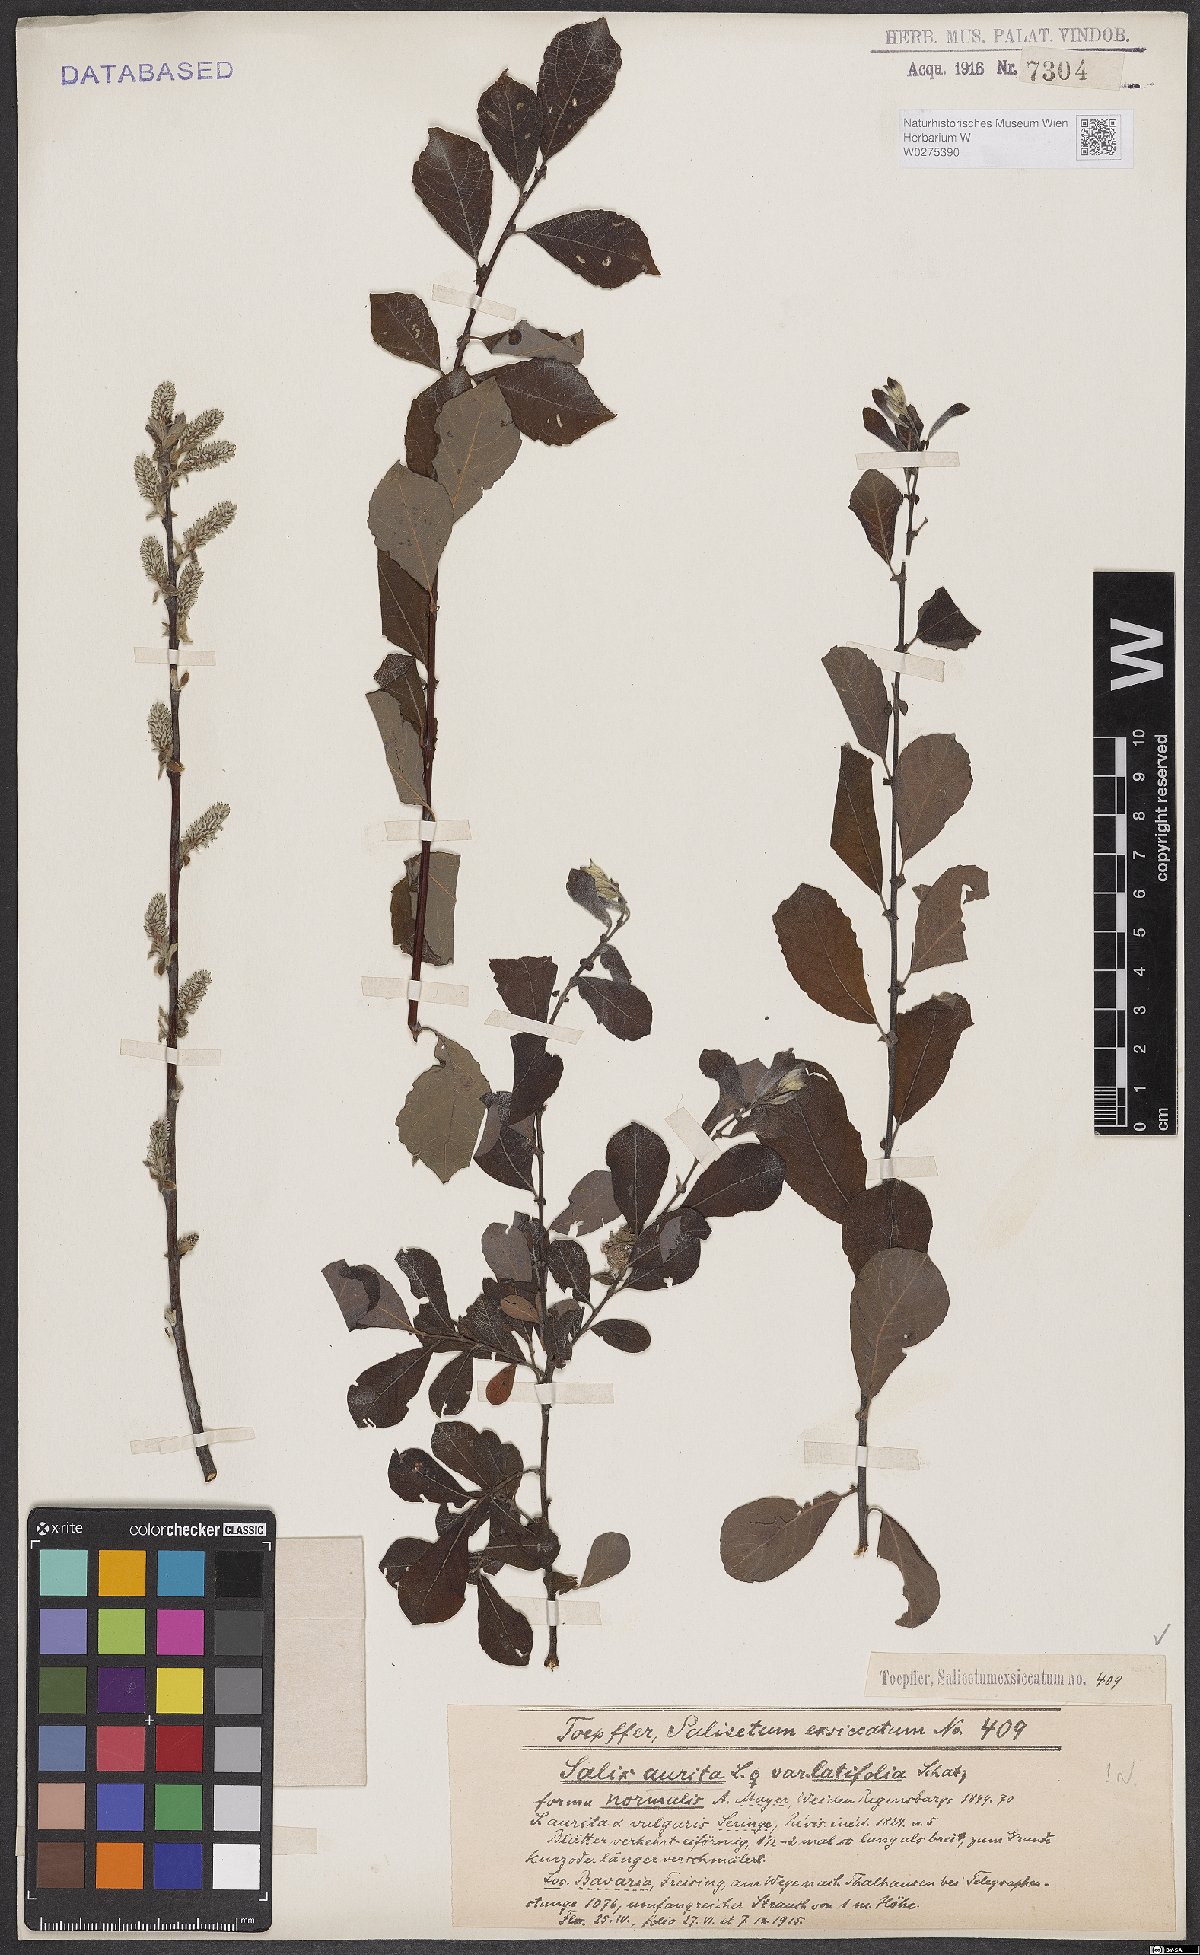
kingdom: Plantae
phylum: Tracheophyta
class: Magnoliopsida
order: Malpighiales
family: Salicaceae
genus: Salix
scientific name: Salix aurita
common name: Eared willow
